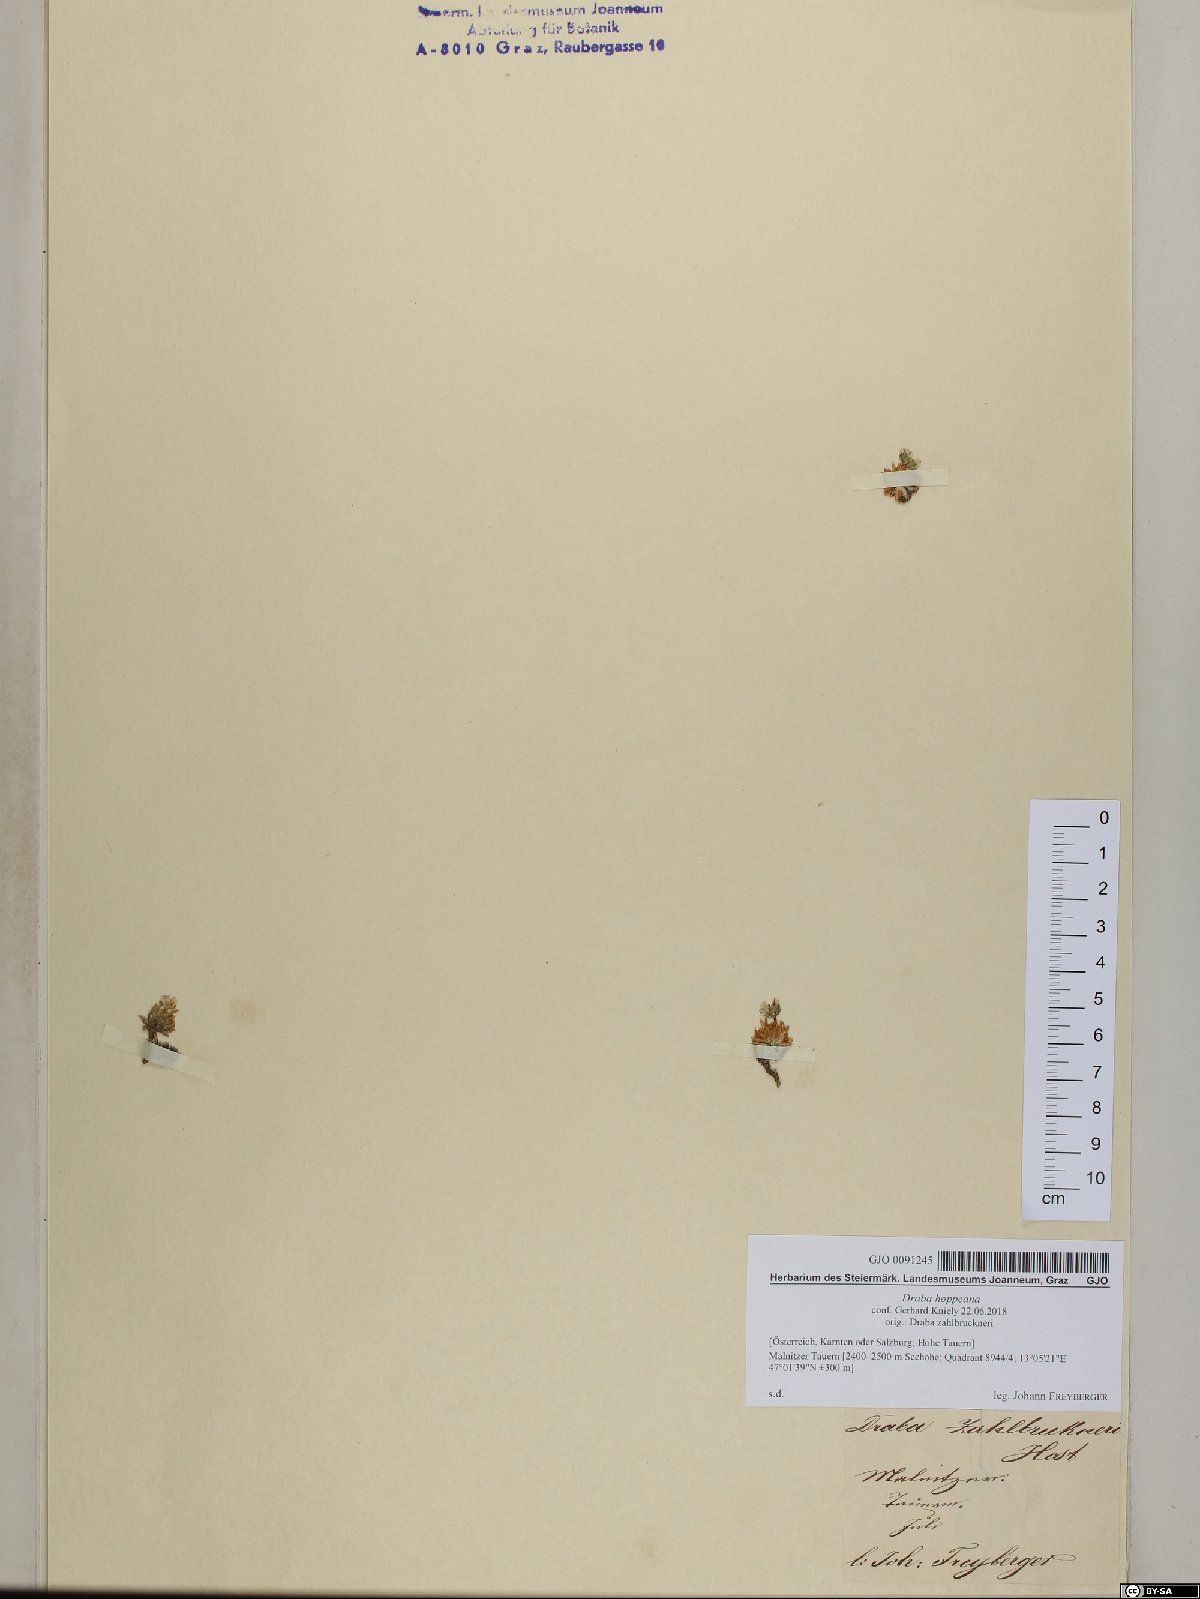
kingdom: Plantae
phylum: Tracheophyta
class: Magnoliopsida
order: Brassicales
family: Brassicaceae
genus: Draba
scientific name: Draba hoppeana
